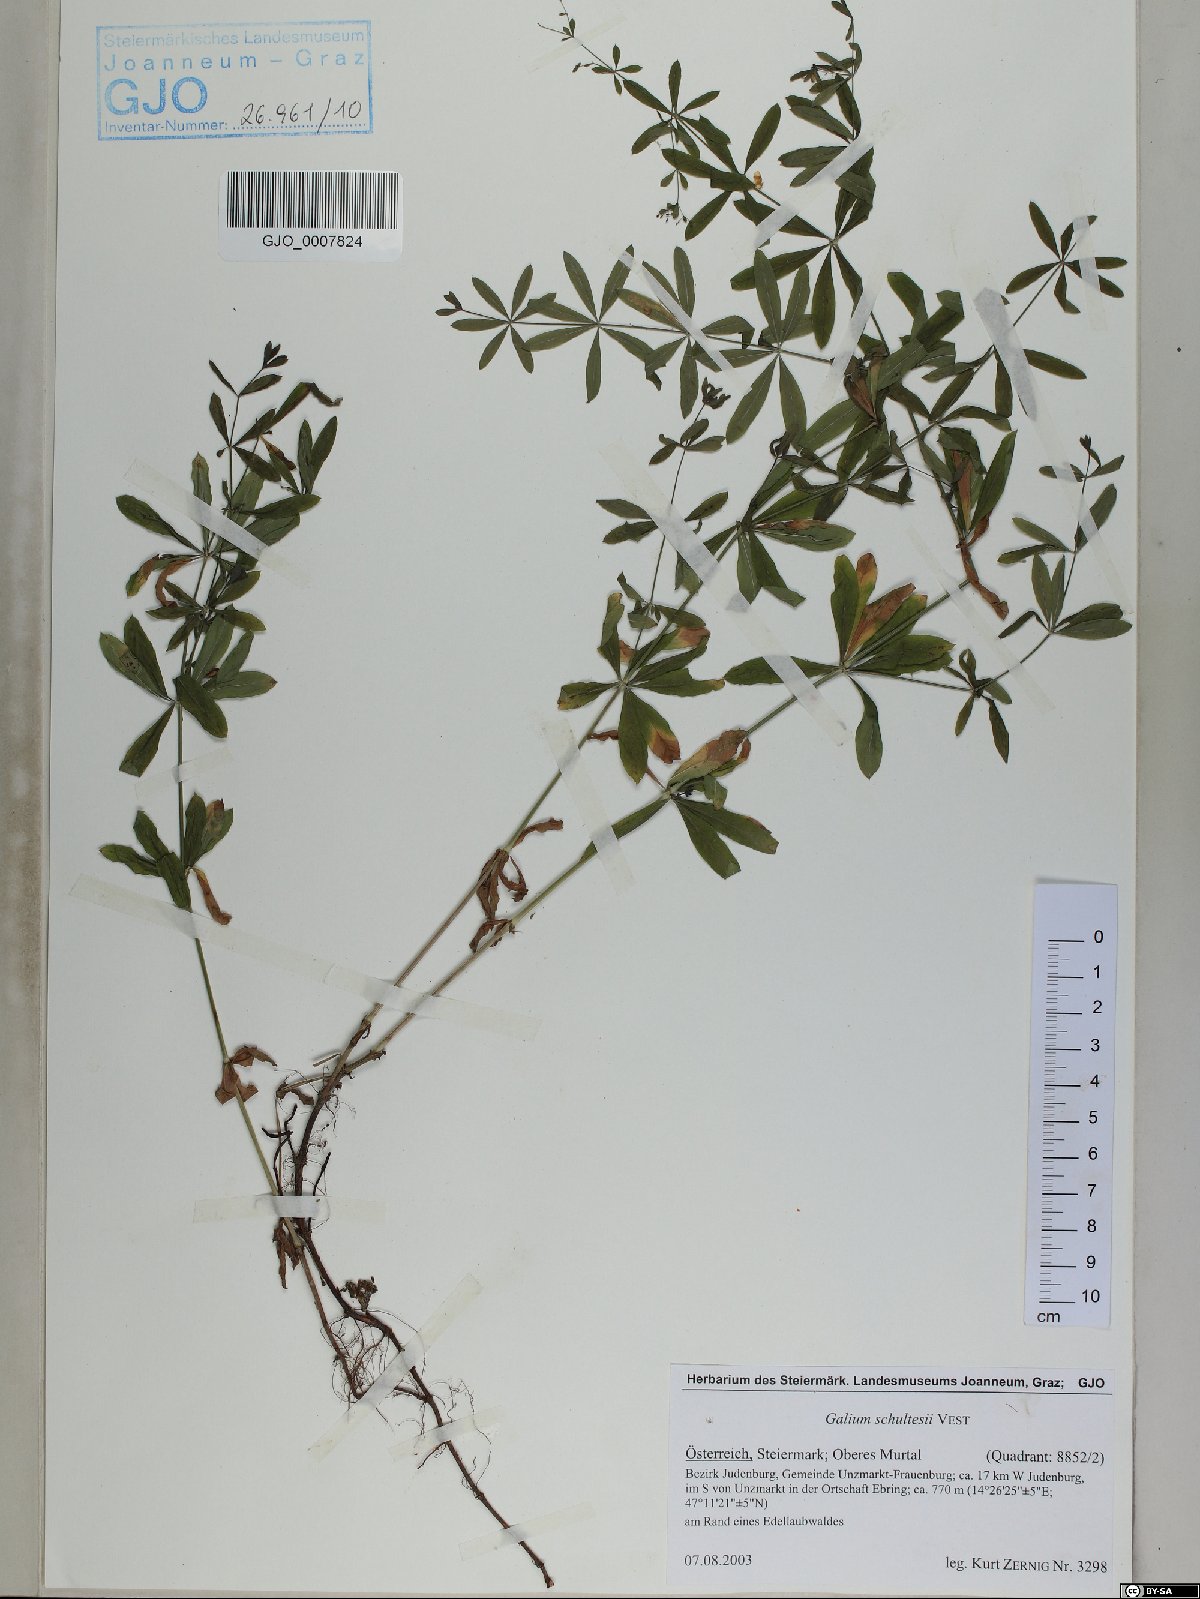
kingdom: Plantae
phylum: Tracheophyta
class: Magnoliopsida
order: Gentianales
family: Rubiaceae
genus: Galium
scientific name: Galium intermedium
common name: Bedstraw
